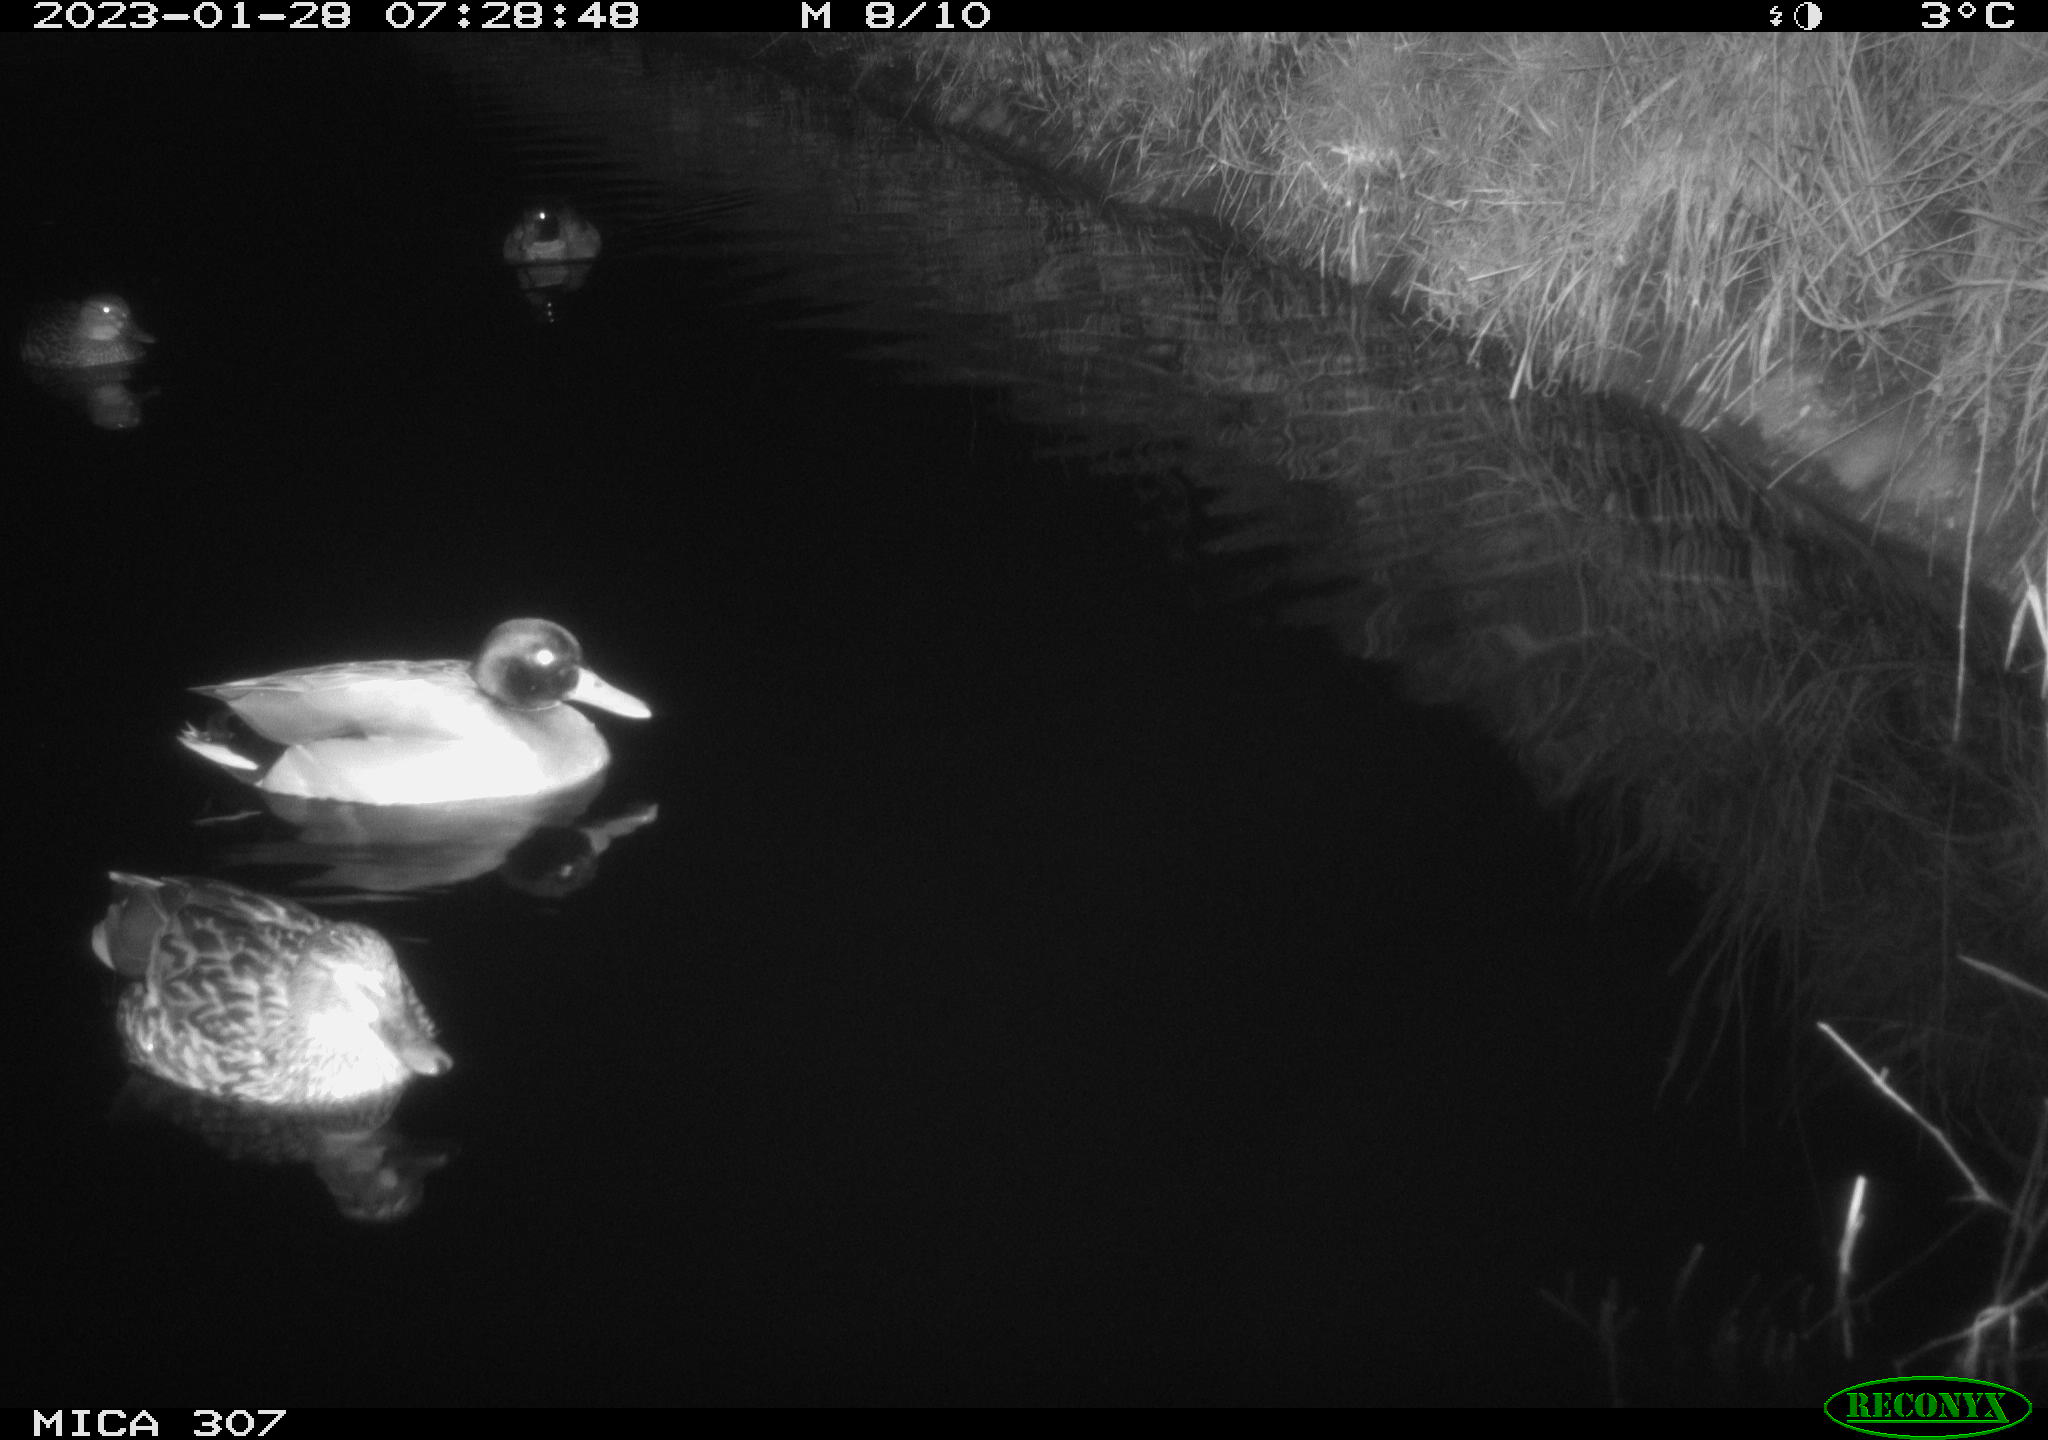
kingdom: Animalia
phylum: Chordata
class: Aves
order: Anseriformes
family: Anatidae
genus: Anas
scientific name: Anas
